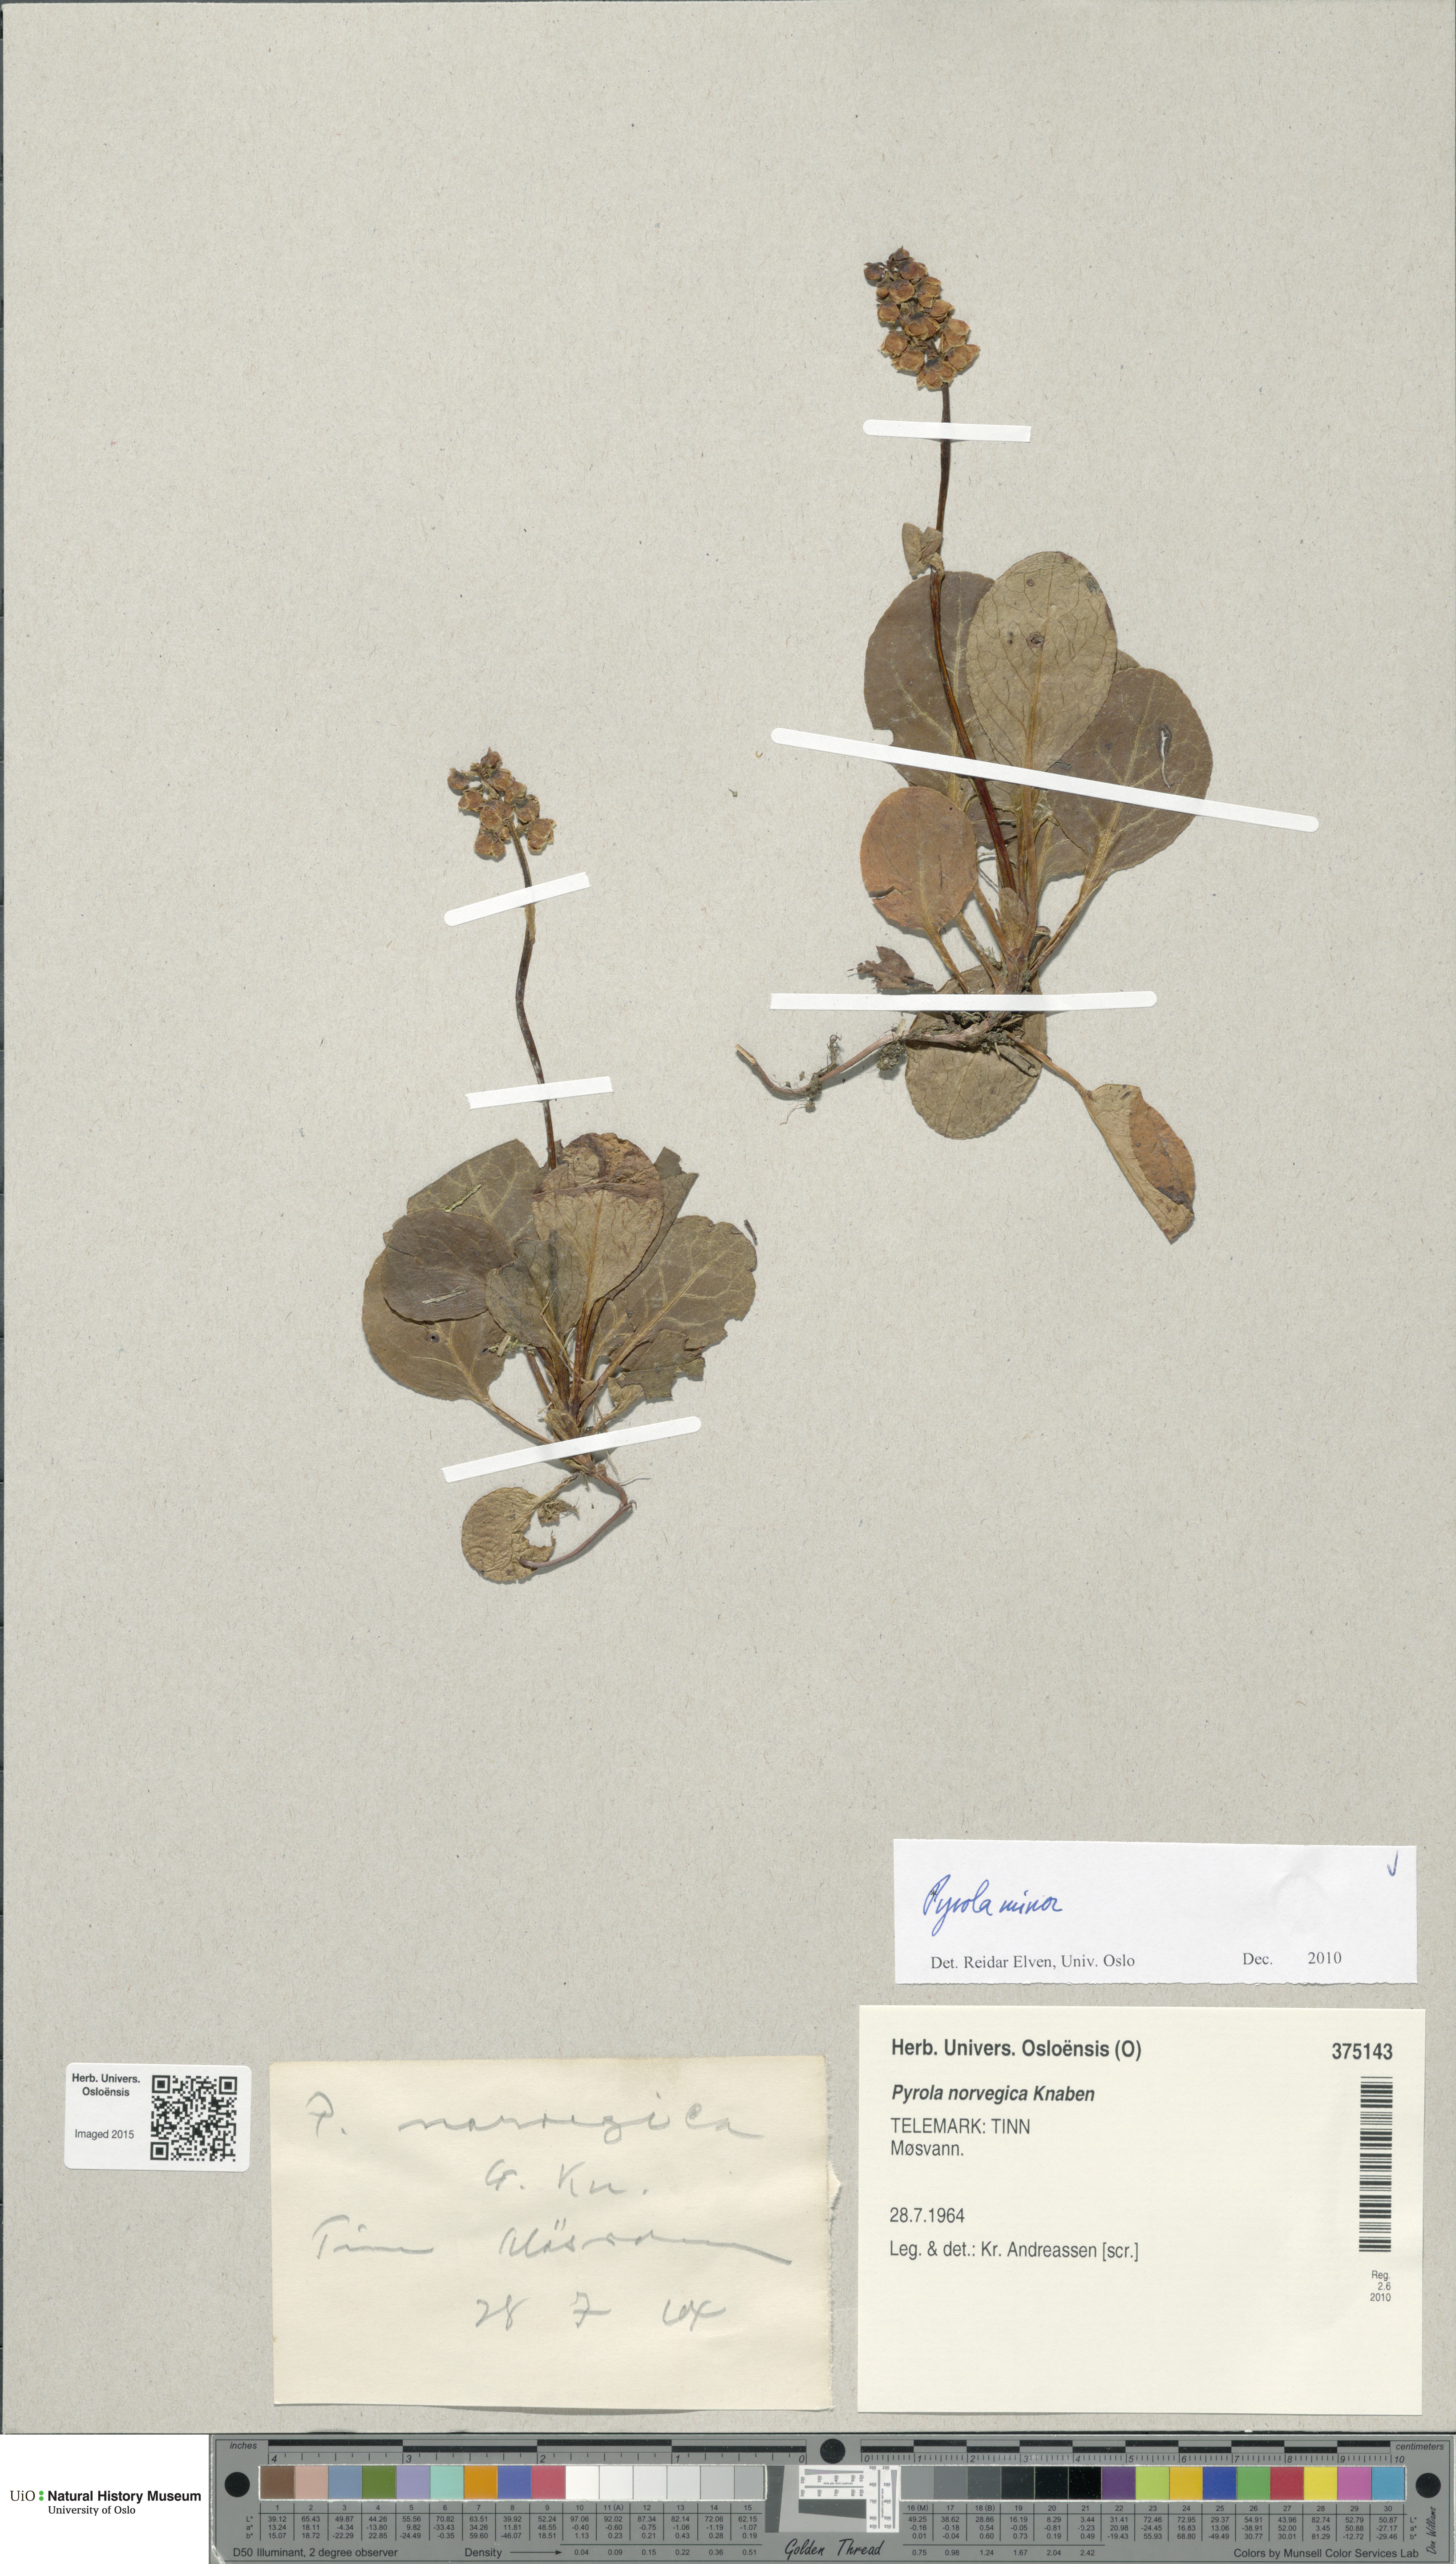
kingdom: Plantae
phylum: Tracheophyta
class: Magnoliopsida
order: Ericales
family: Ericaceae
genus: Pyrola
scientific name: Pyrola minor
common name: Common wintergreen
